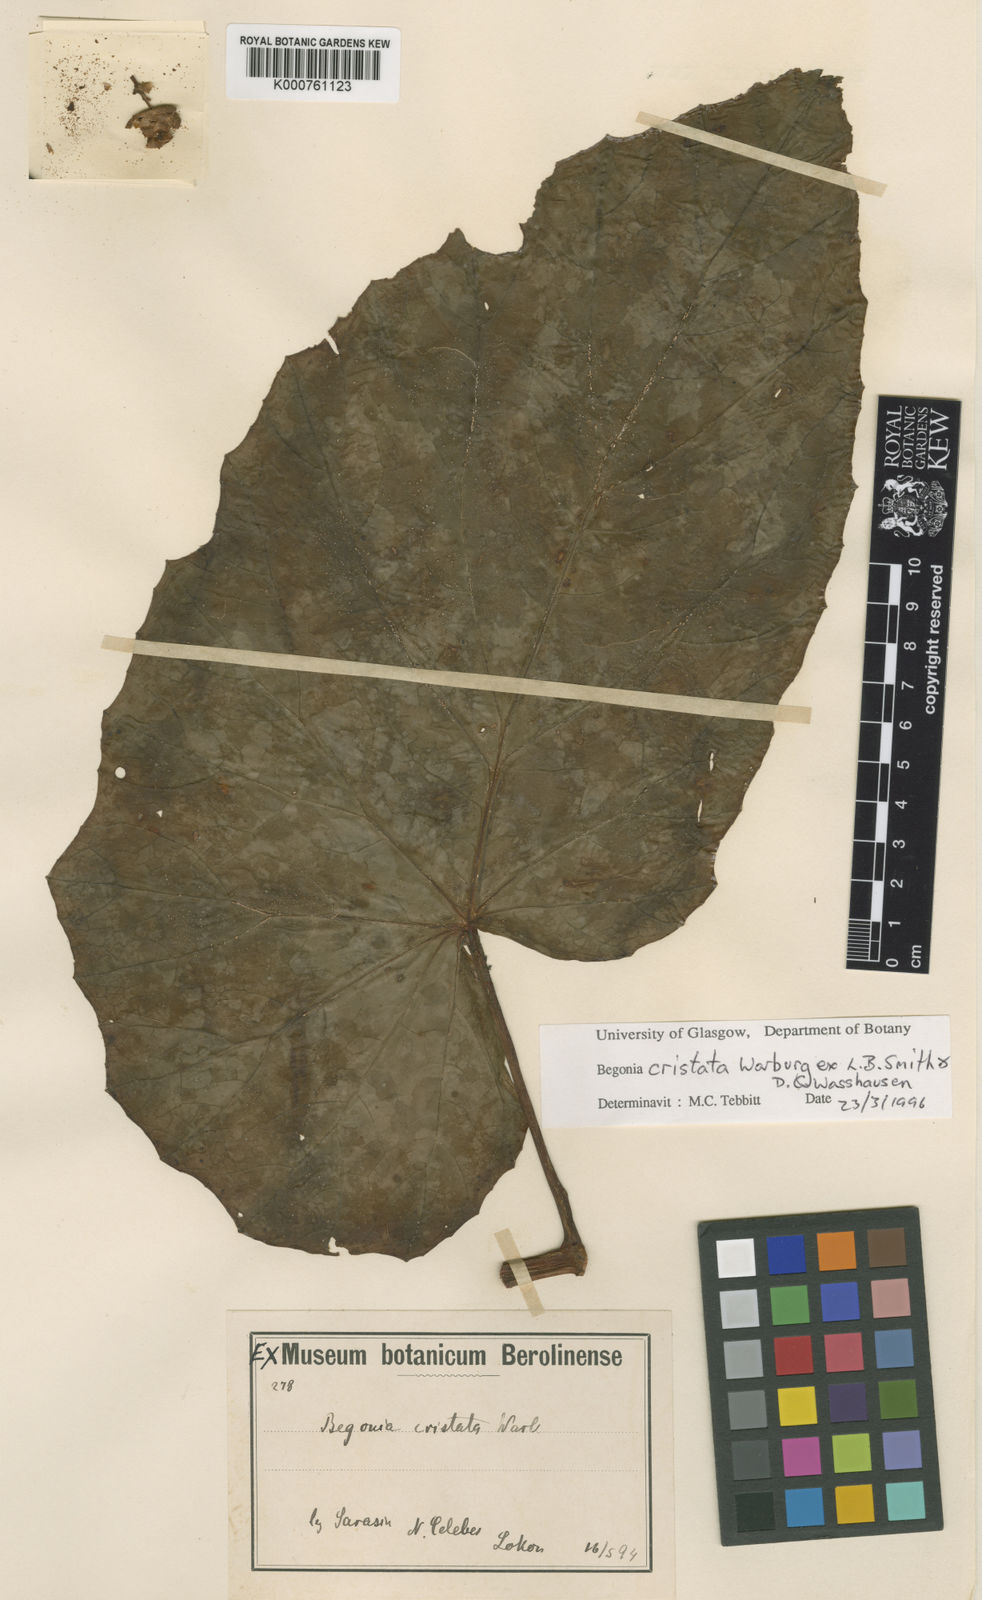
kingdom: Plantae
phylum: Tracheophyta
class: Magnoliopsida
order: Cucurbitales
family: Begoniaceae
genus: Begonia
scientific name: Begonia aptera
